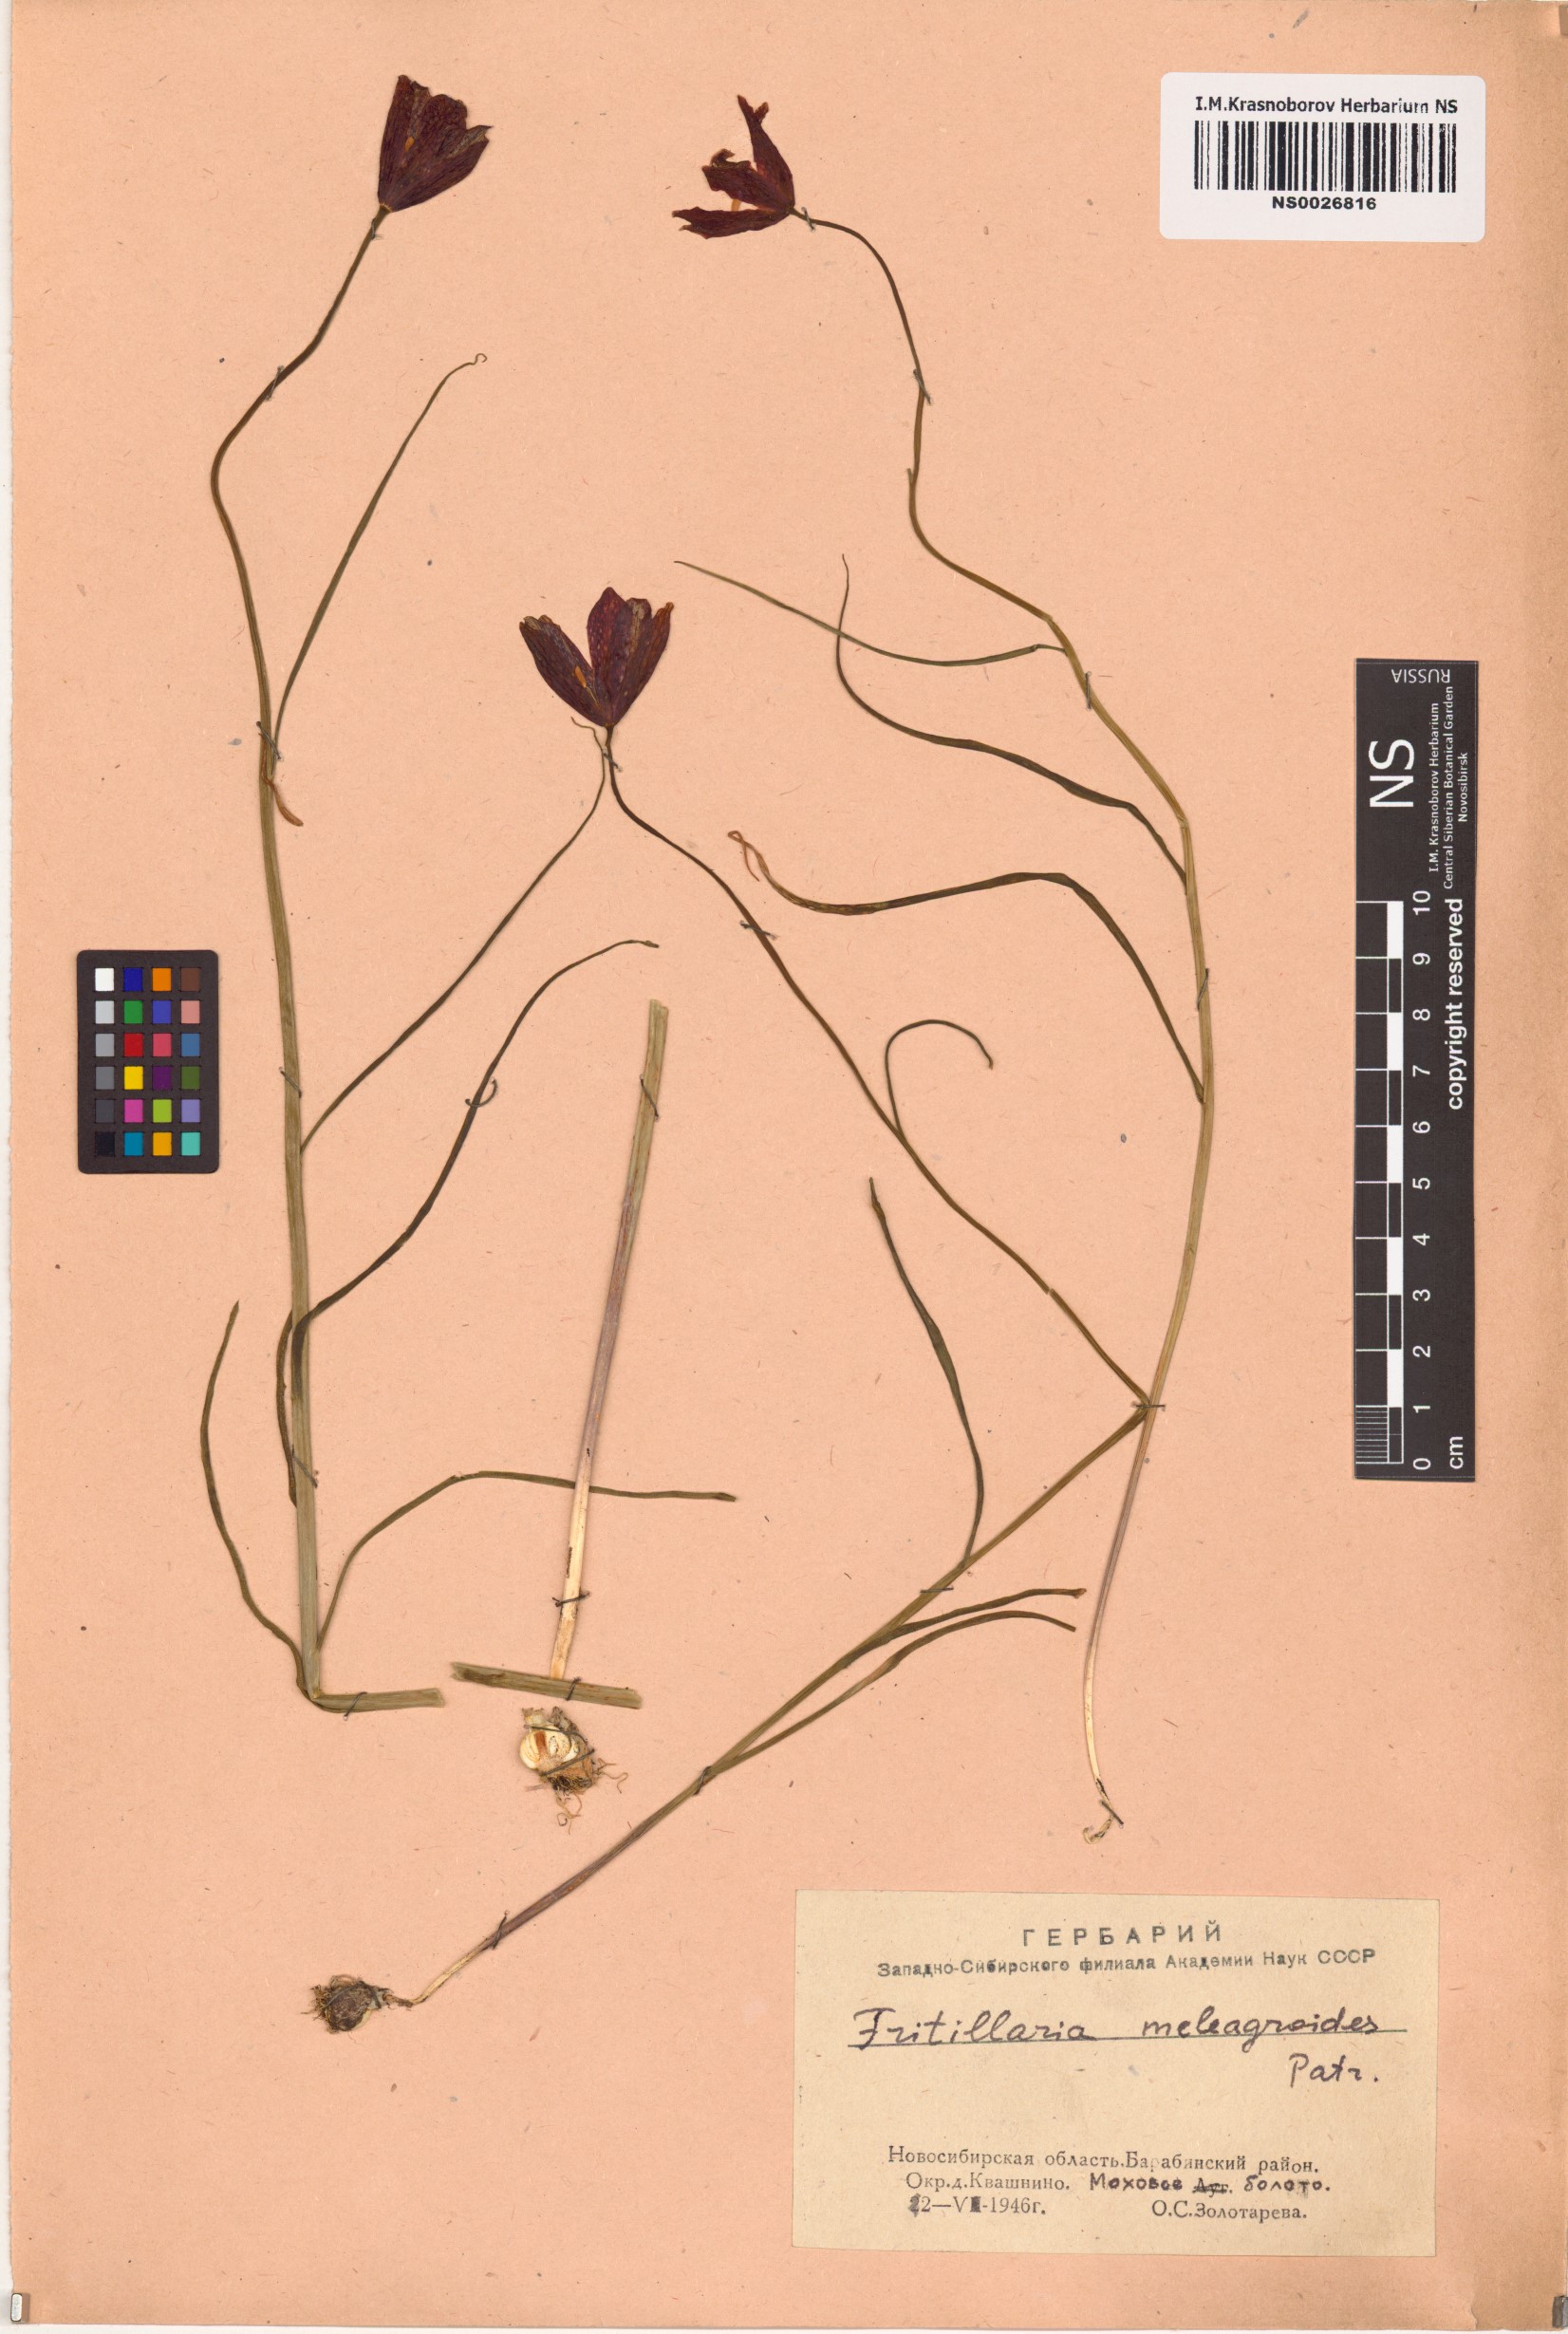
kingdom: Plantae
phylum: Tracheophyta
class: Liliopsida
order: Liliales
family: Liliaceae
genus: Fritillaria
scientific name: Fritillaria meleagroides
